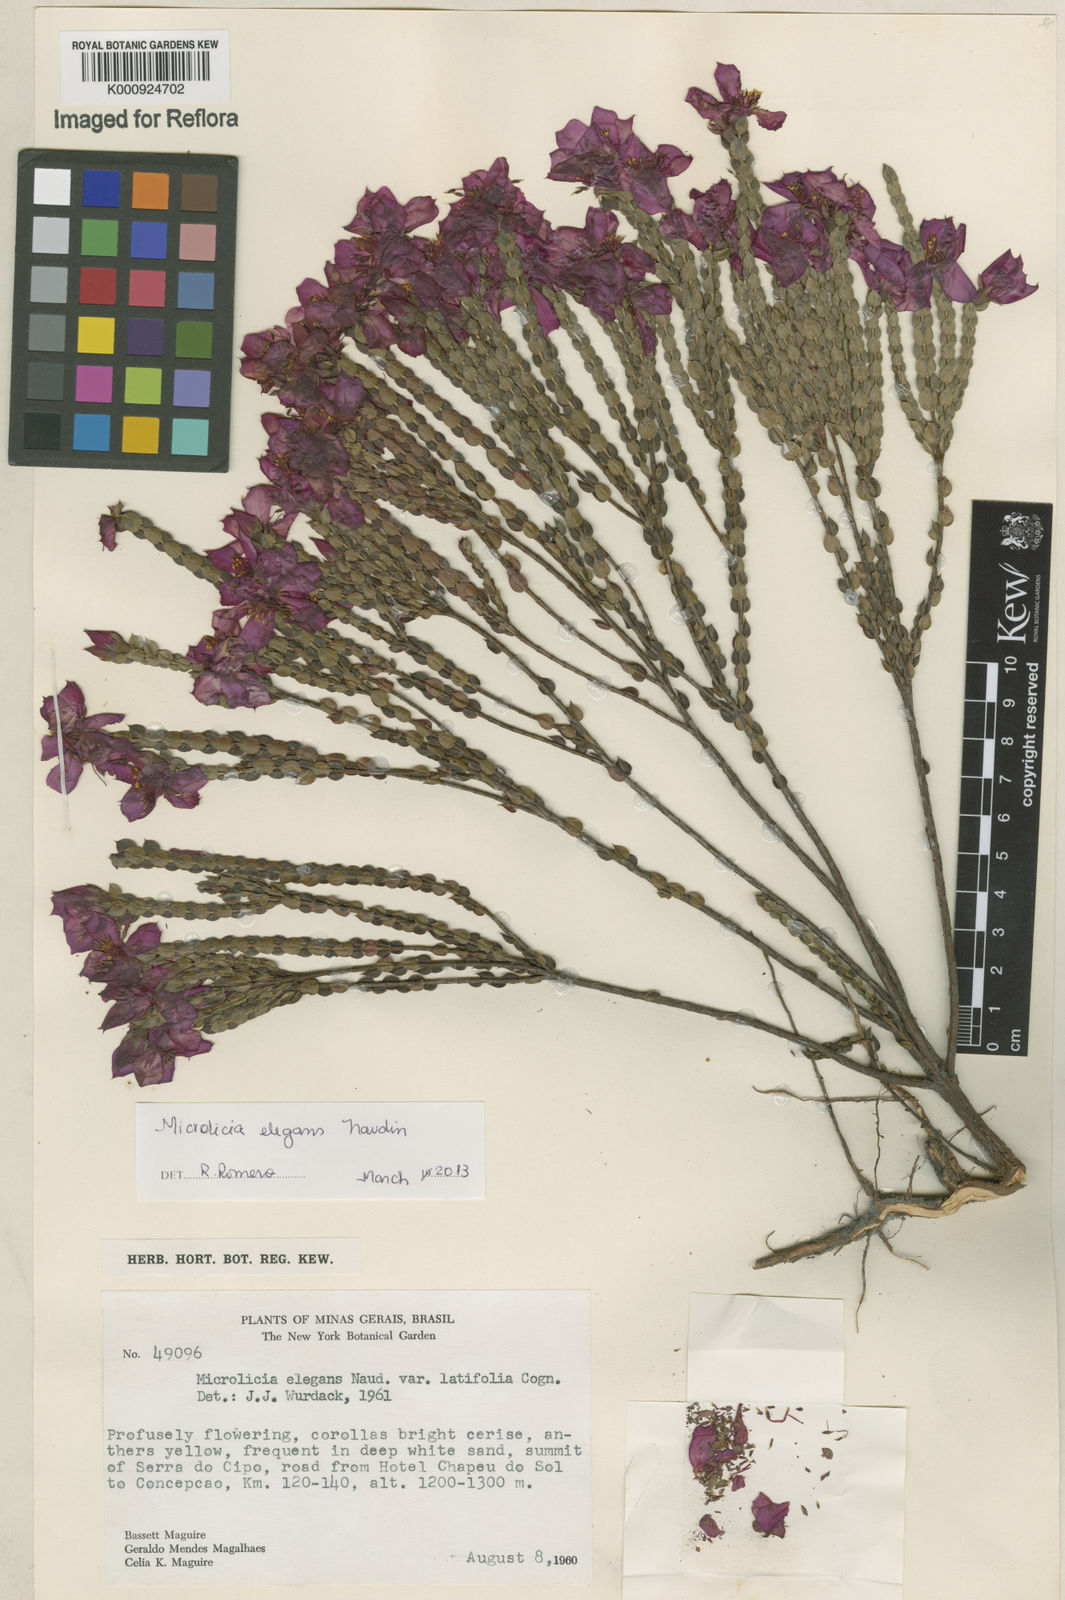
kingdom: Plantae
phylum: Tracheophyta
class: Magnoliopsida
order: Myrtales
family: Melastomataceae
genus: Microlicia
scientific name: Microlicia elegans
